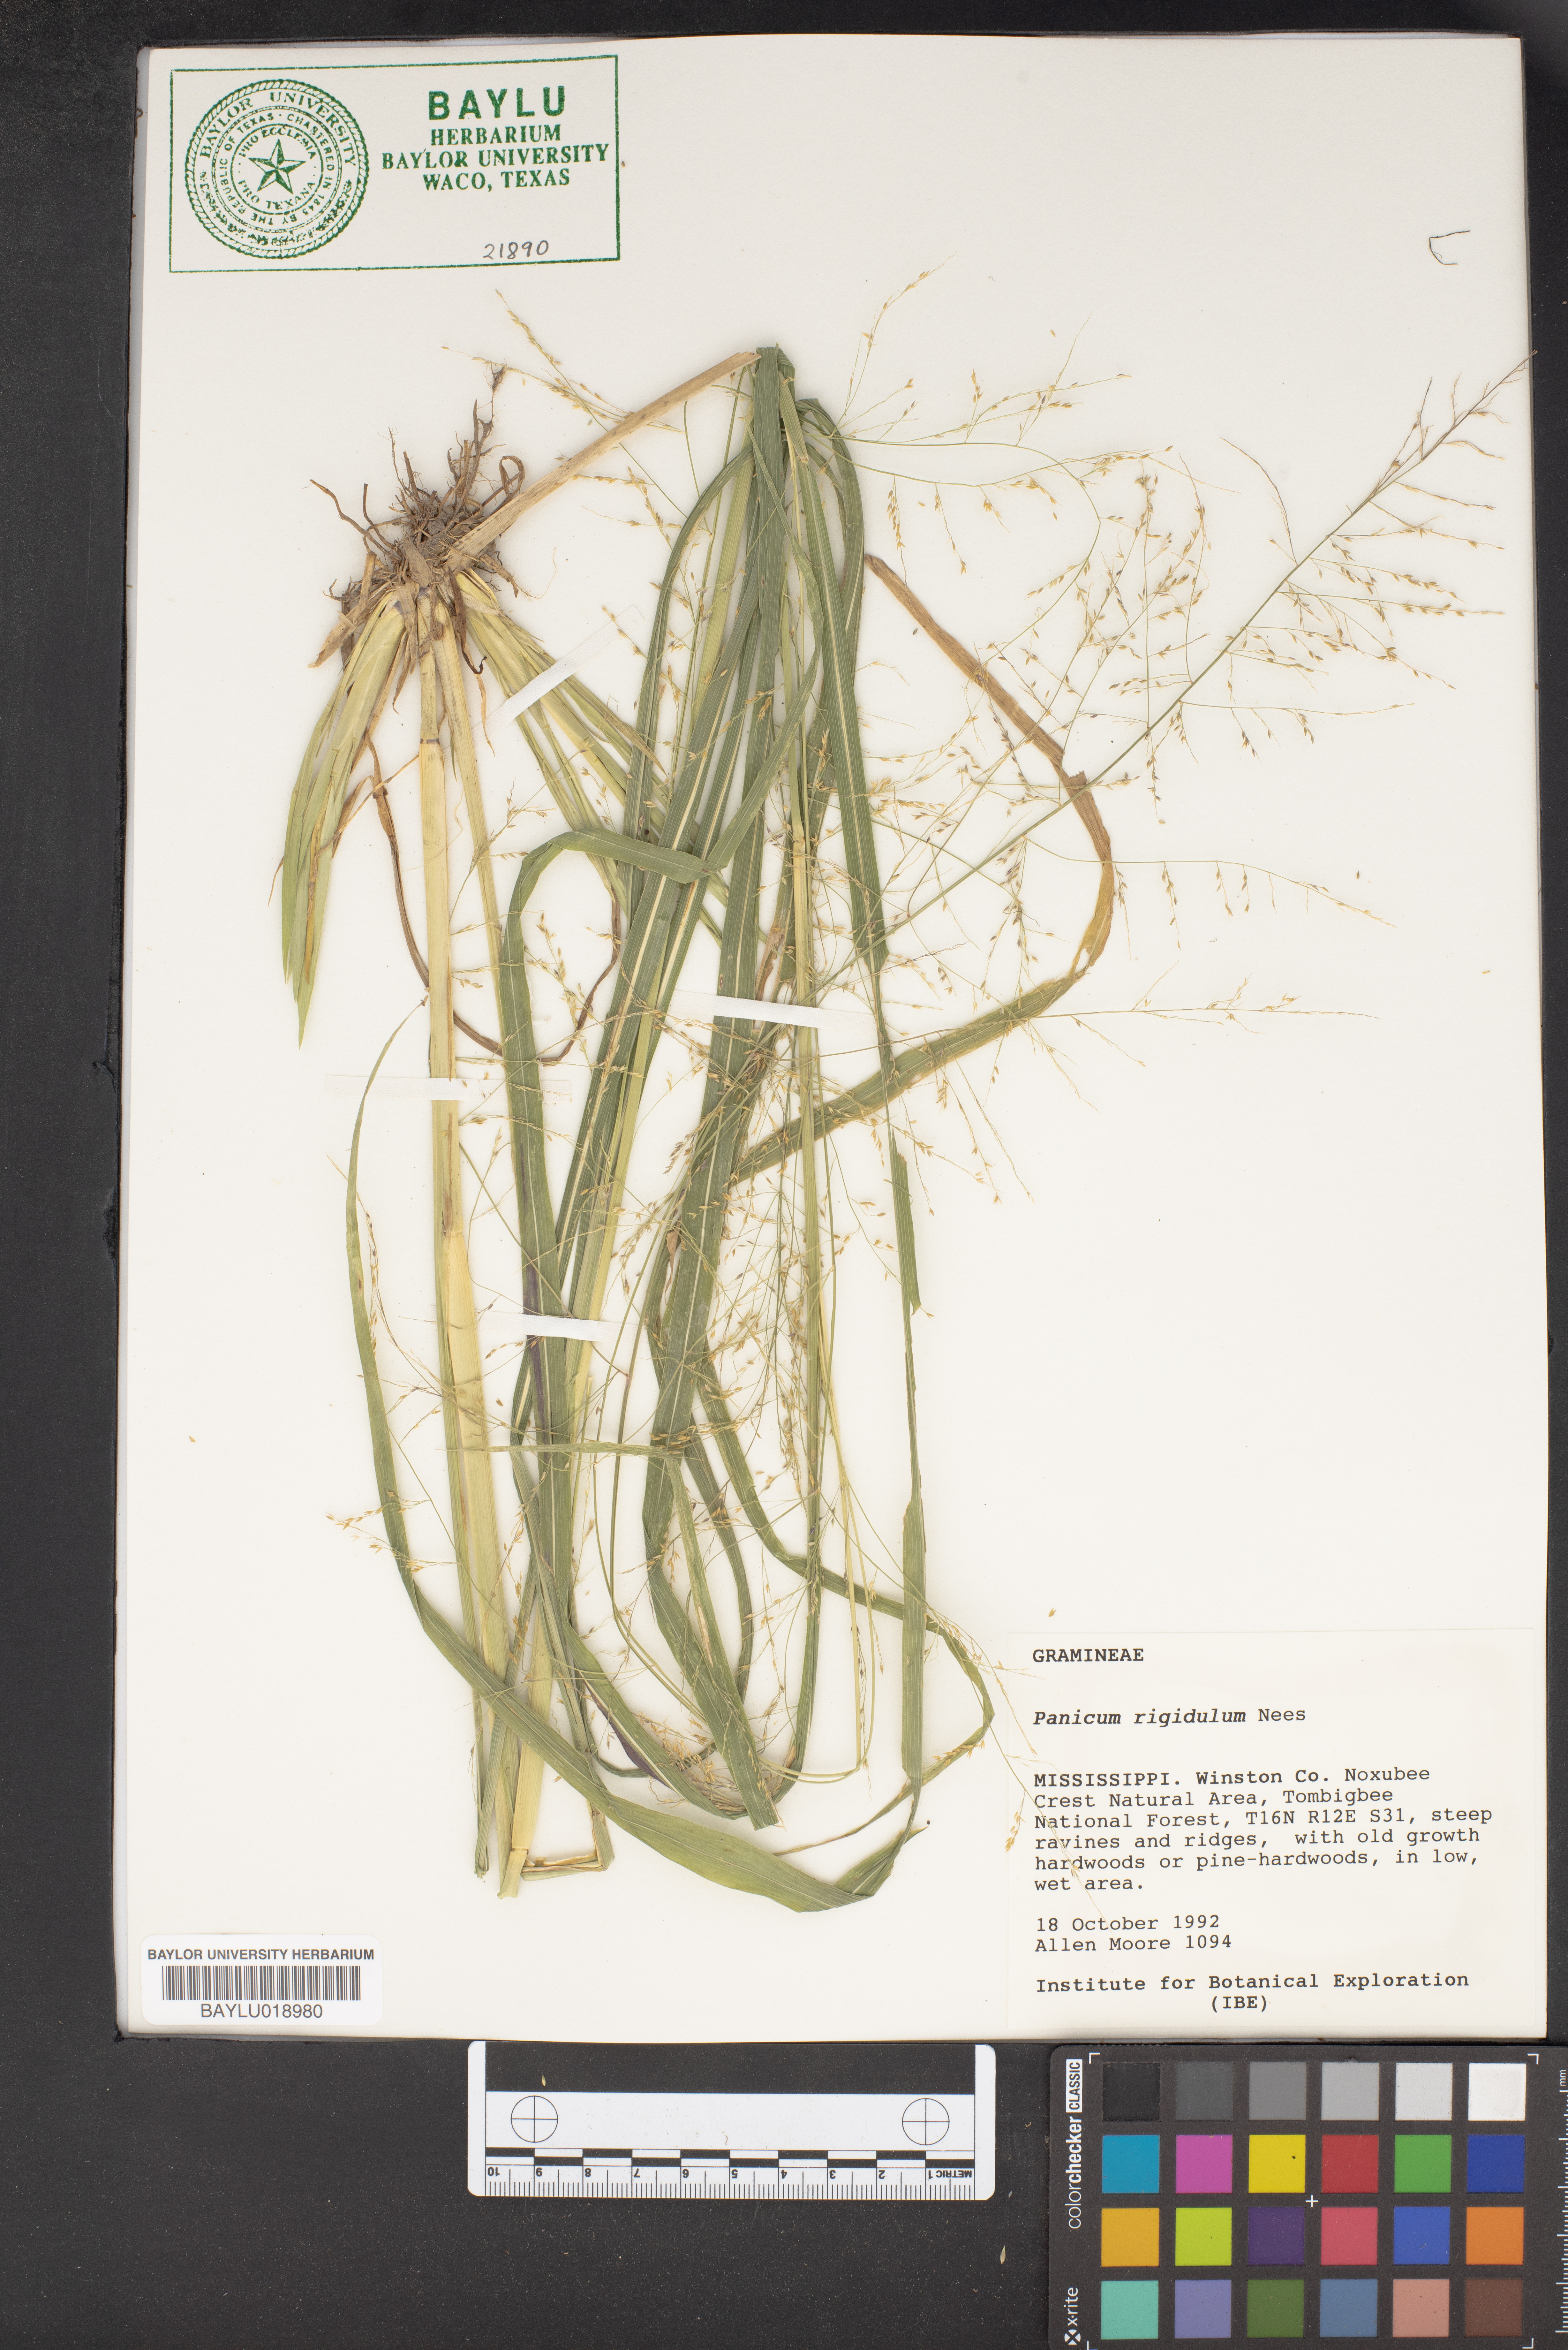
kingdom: Plantae
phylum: Tracheophyta
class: Liliopsida
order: Poales
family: Poaceae
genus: Coleataenia
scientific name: Coleataenia rigidula
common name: Redtop panicgrass
